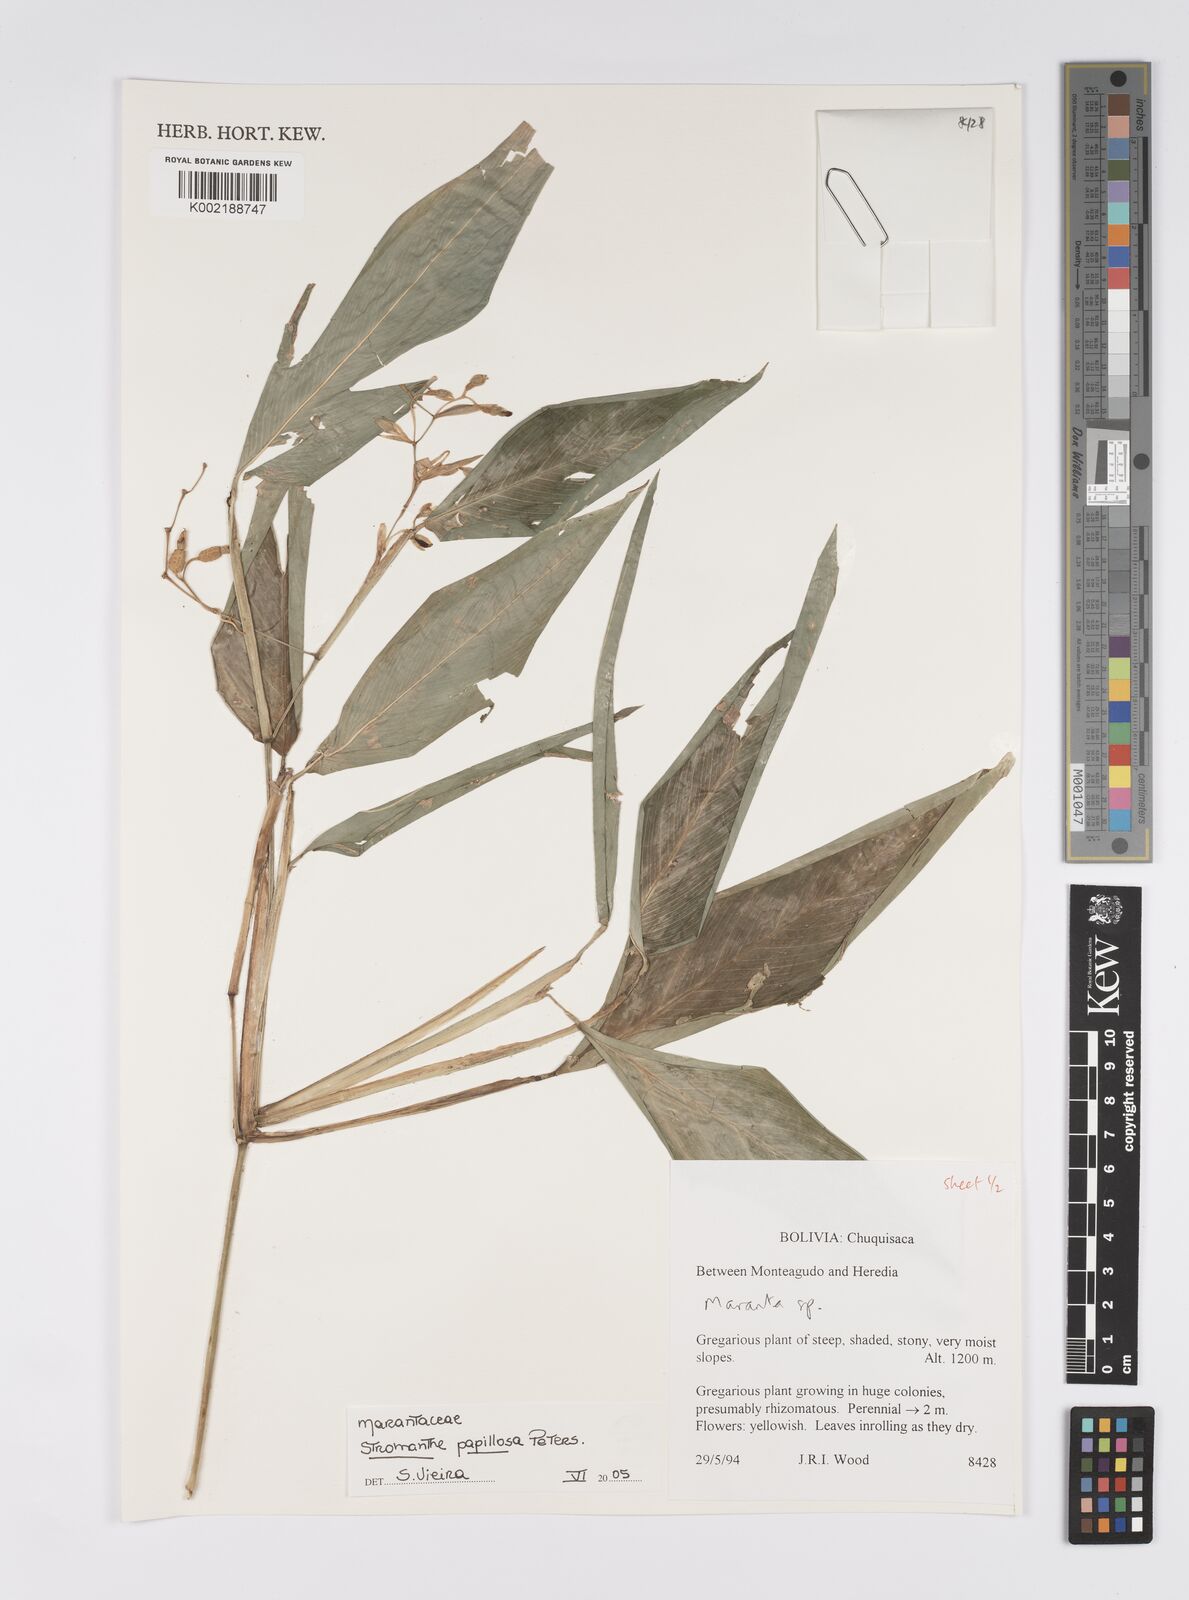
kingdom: Plantae
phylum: Tracheophyta
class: Liliopsida
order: Zingiberales
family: Marantaceae
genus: Stromanthe
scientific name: Stromanthe papillosa
